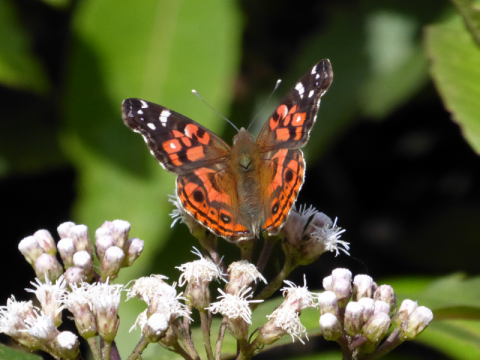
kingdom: Animalia
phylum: Arthropoda
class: Insecta
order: Lepidoptera
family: Nymphalidae
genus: Vanessa
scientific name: Vanessa virginiensis
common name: American Lady
